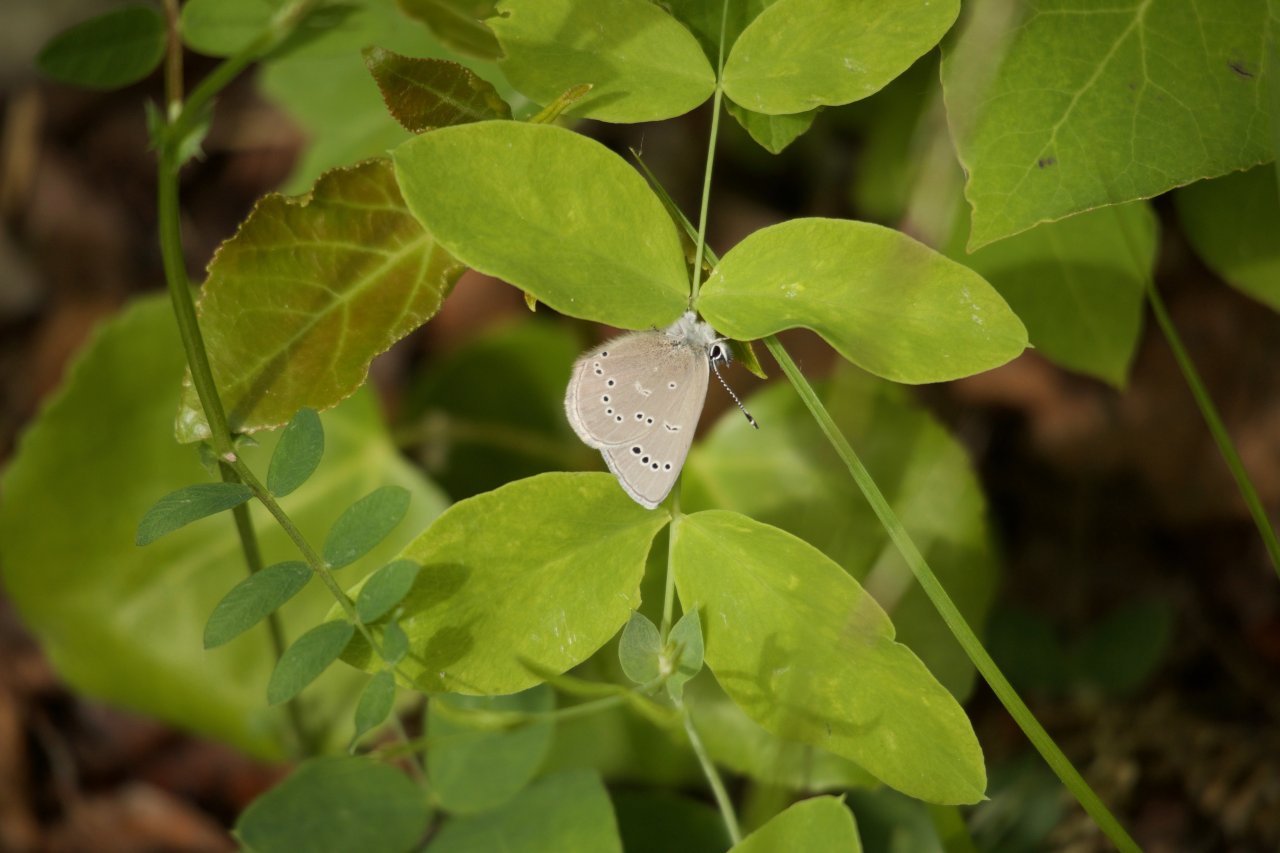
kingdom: Animalia
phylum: Arthropoda
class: Insecta
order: Lepidoptera
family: Lycaenidae
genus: Glaucopsyche
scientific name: Glaucopsyche lygdamus
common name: Silvery Blue
